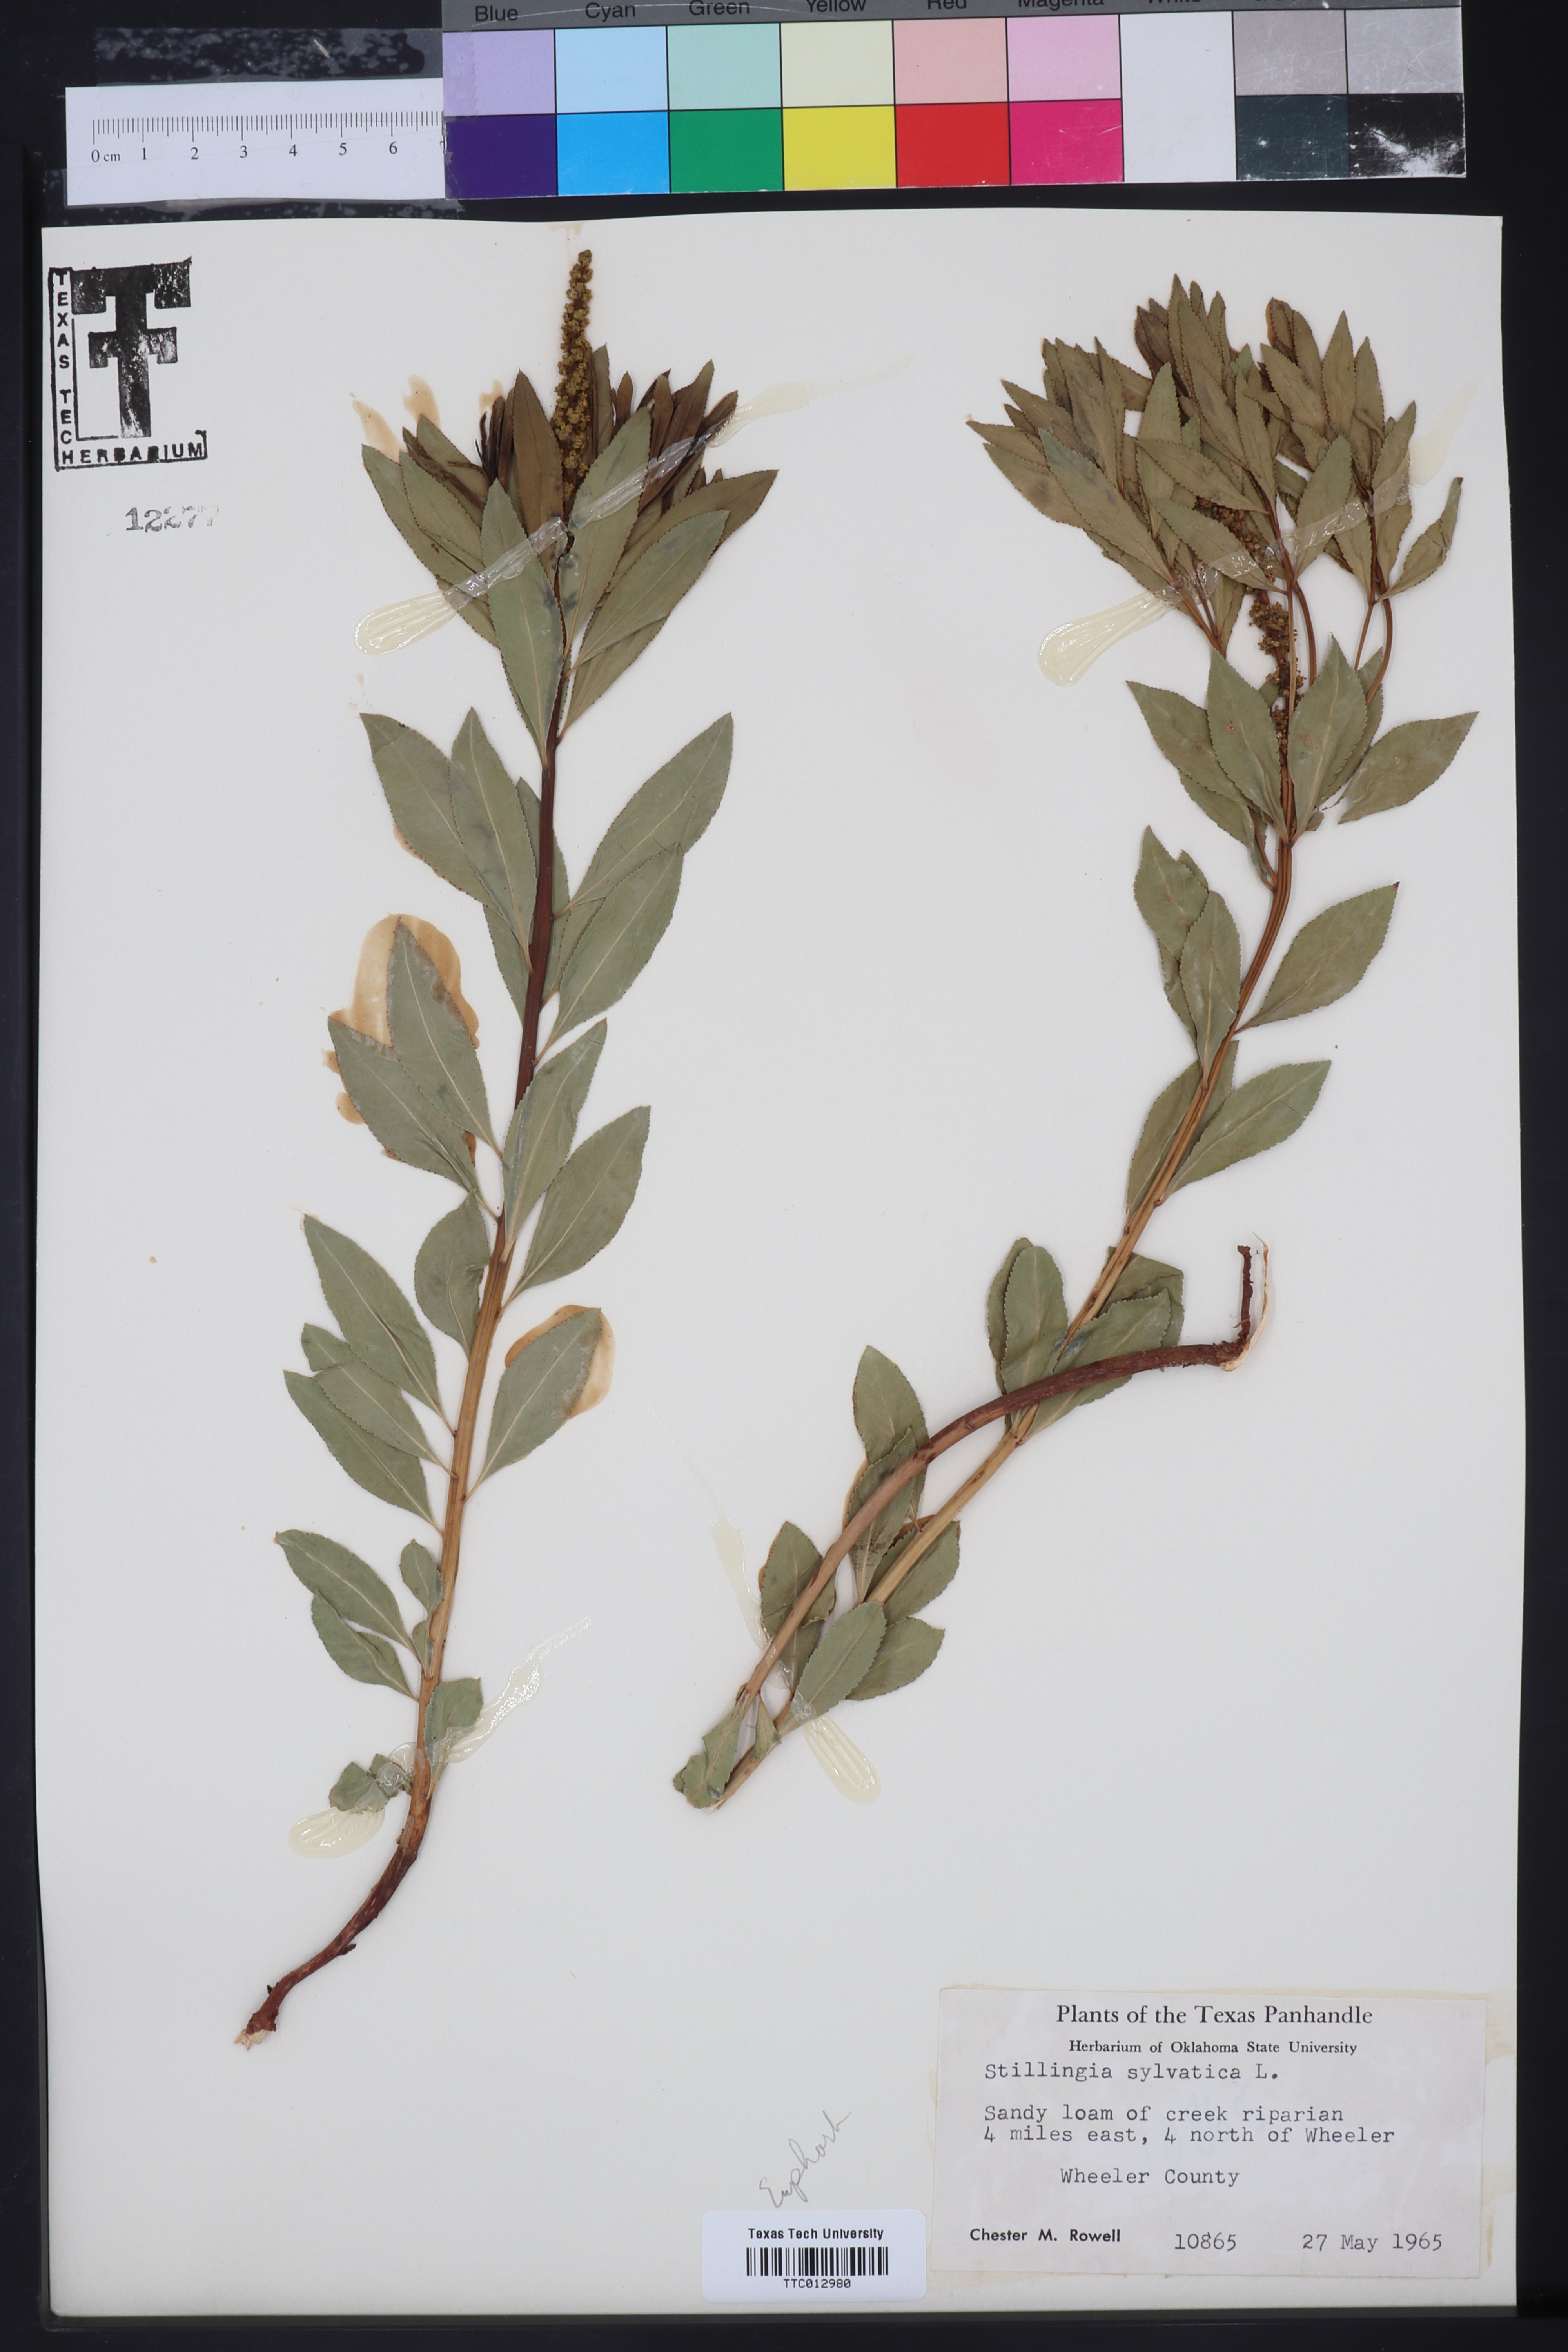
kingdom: Plantae
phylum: Tracheophyta
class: Magnoliopsida
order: Malpighiales
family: Euphorbiaceae
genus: Stillingia
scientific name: Stillingia sylvatica
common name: Queen's-delight
